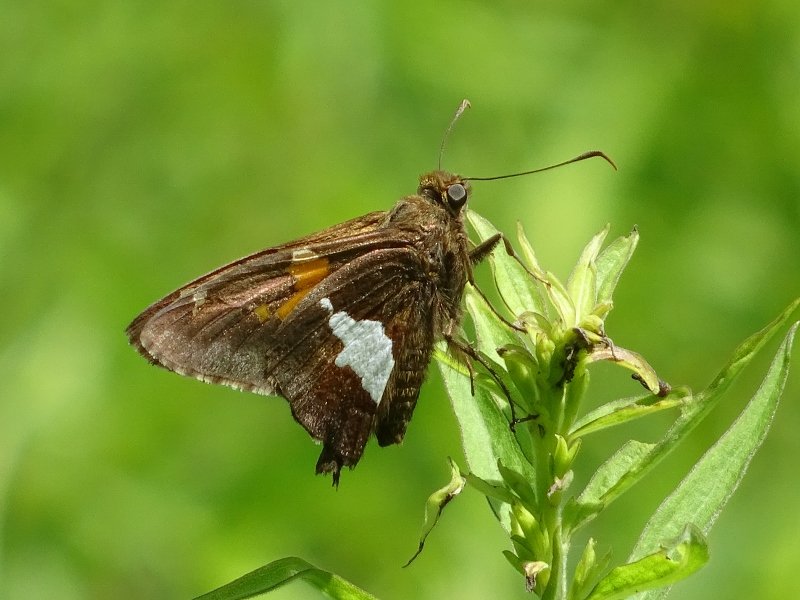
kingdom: Animalia
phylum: Arthropoda
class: Insecta
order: Lepidoptera
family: Hesperiidae
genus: Epargyreus
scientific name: Epargyreus clarus
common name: Silver-spotted Skipper
